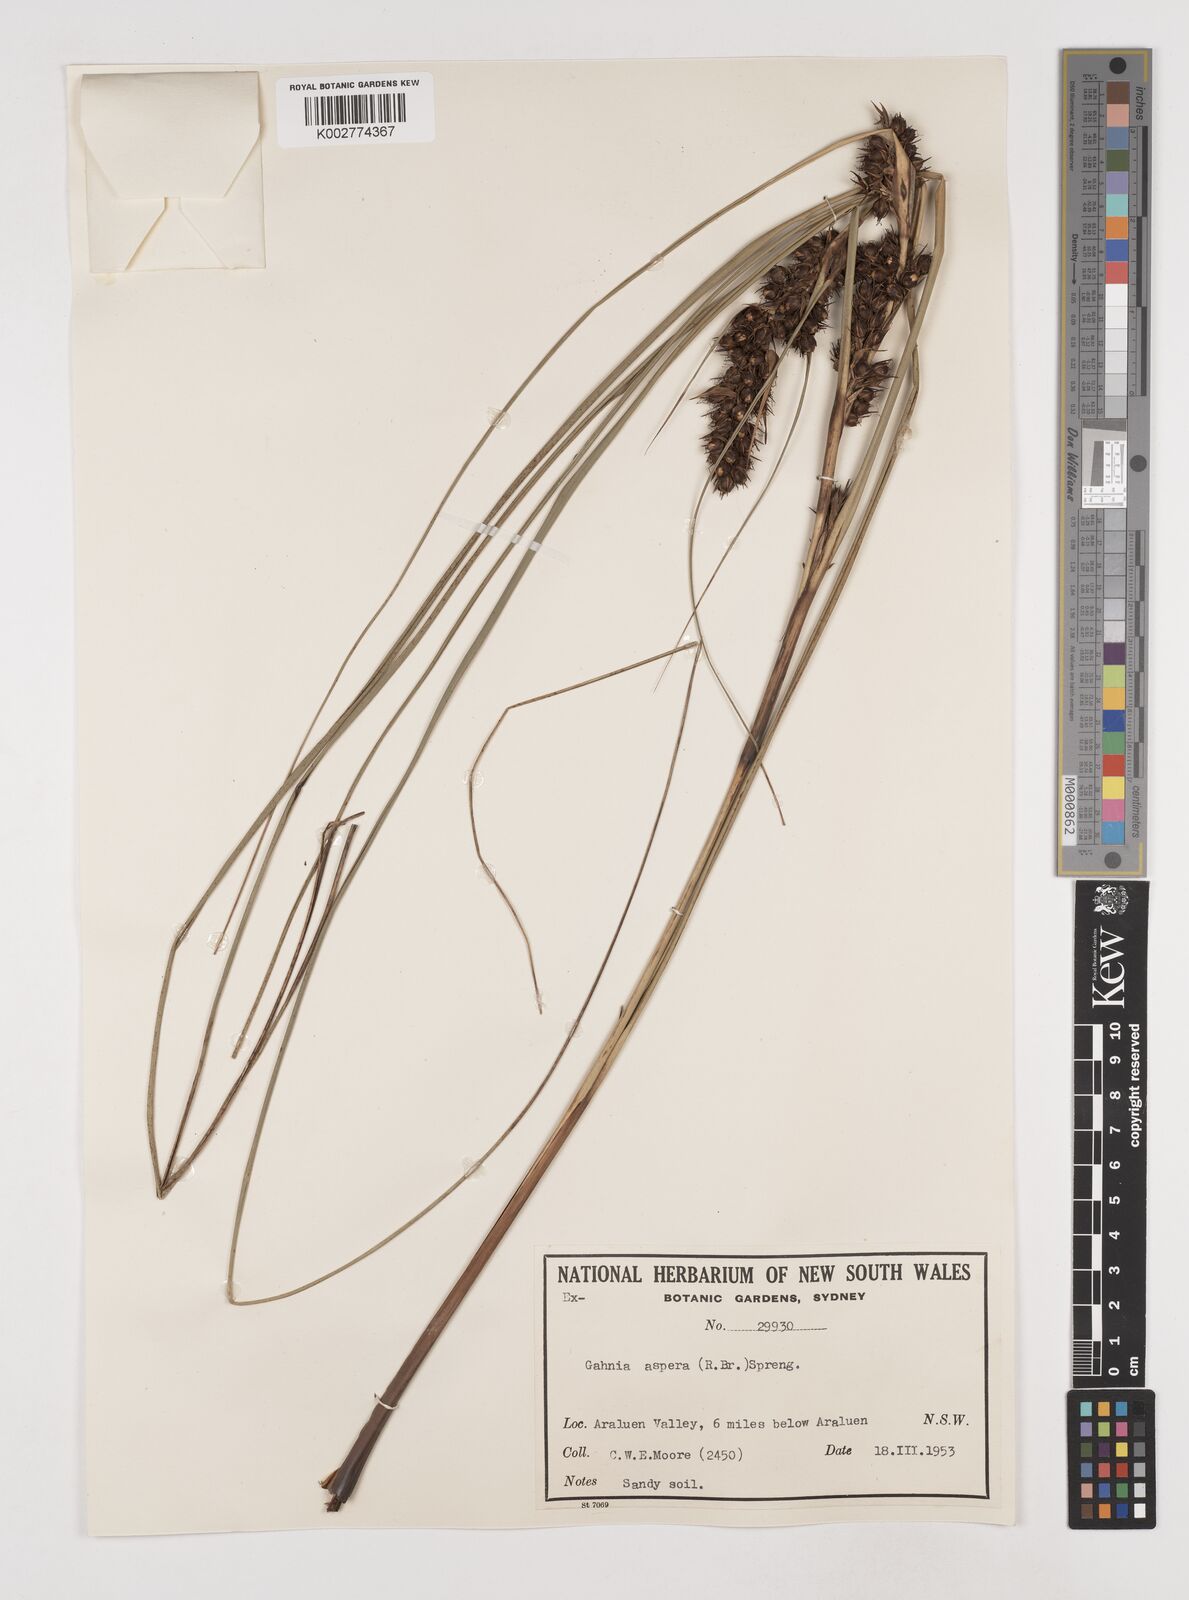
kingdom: Plantae
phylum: Tracheophyta
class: Liliopsida
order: Poales
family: Cyperaceae
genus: Gahnia
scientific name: Gahnia aspera
